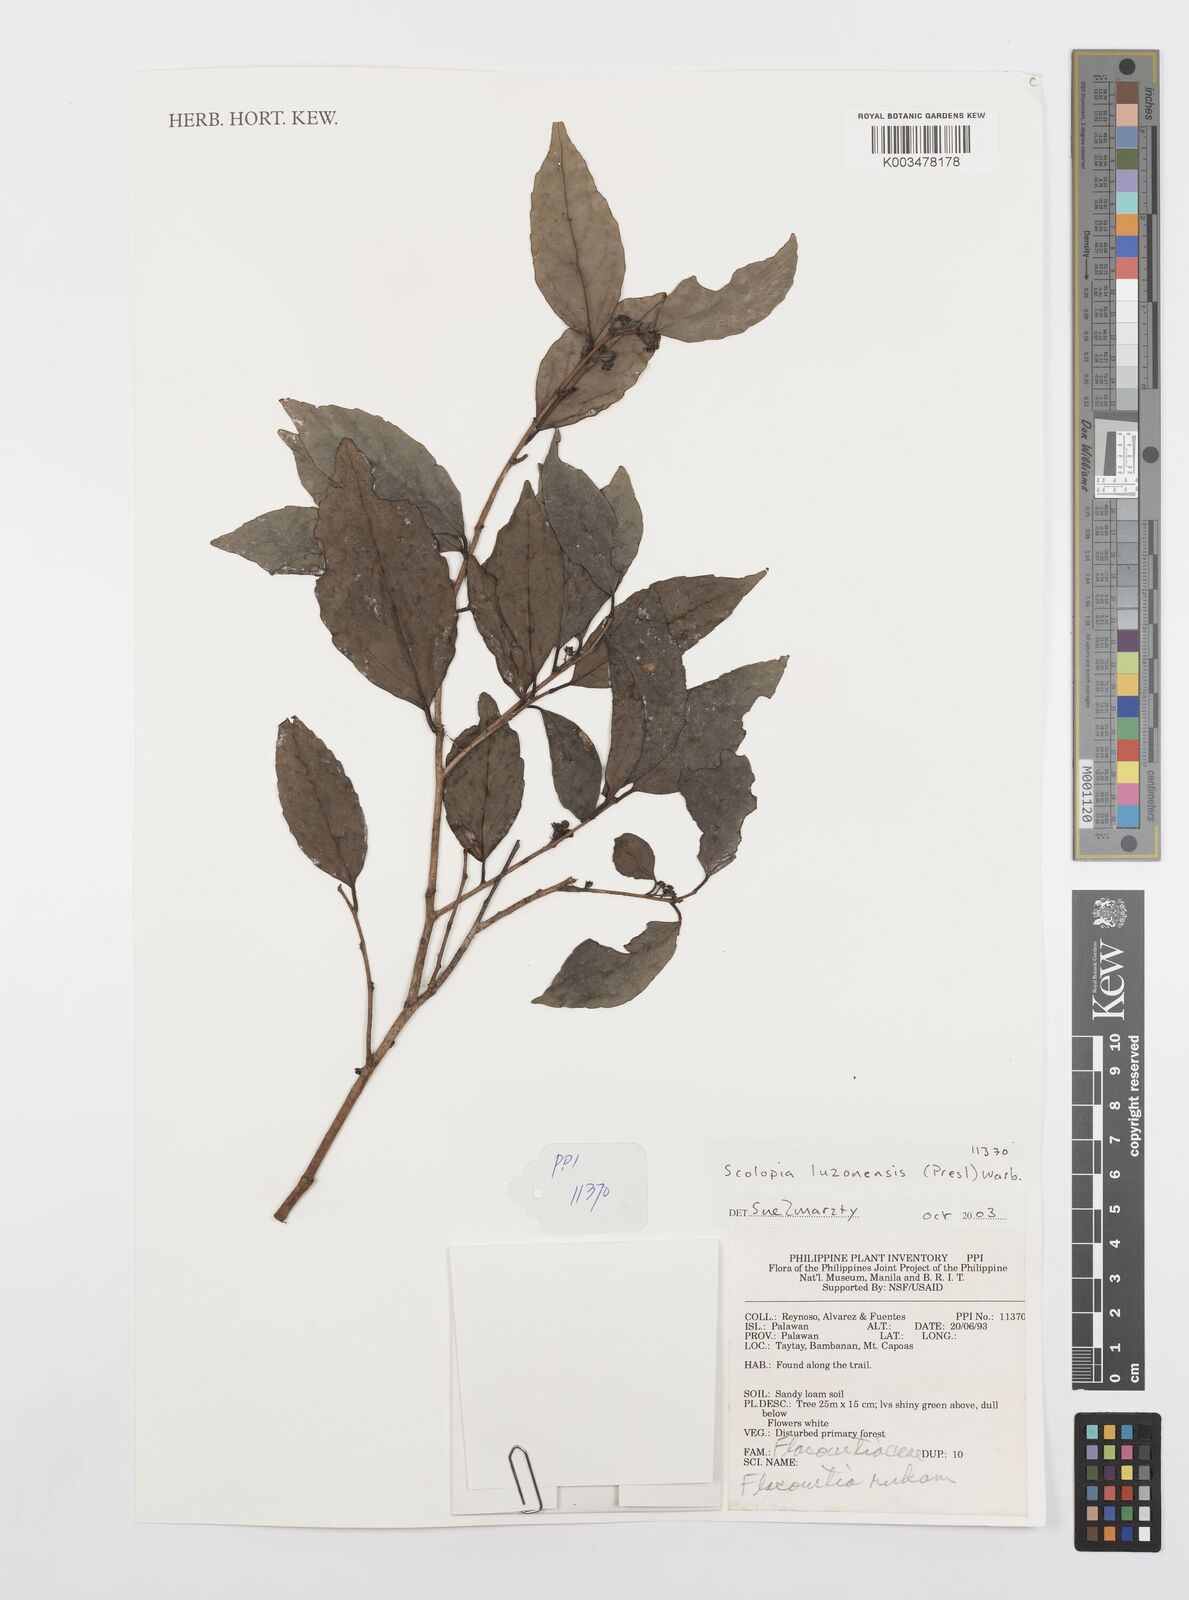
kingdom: Plantae
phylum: Tracheophyta
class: Magnoliopsida
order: Malpighiales
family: Salicaceae
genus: Scolopia
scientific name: Scolopia luzonensis
